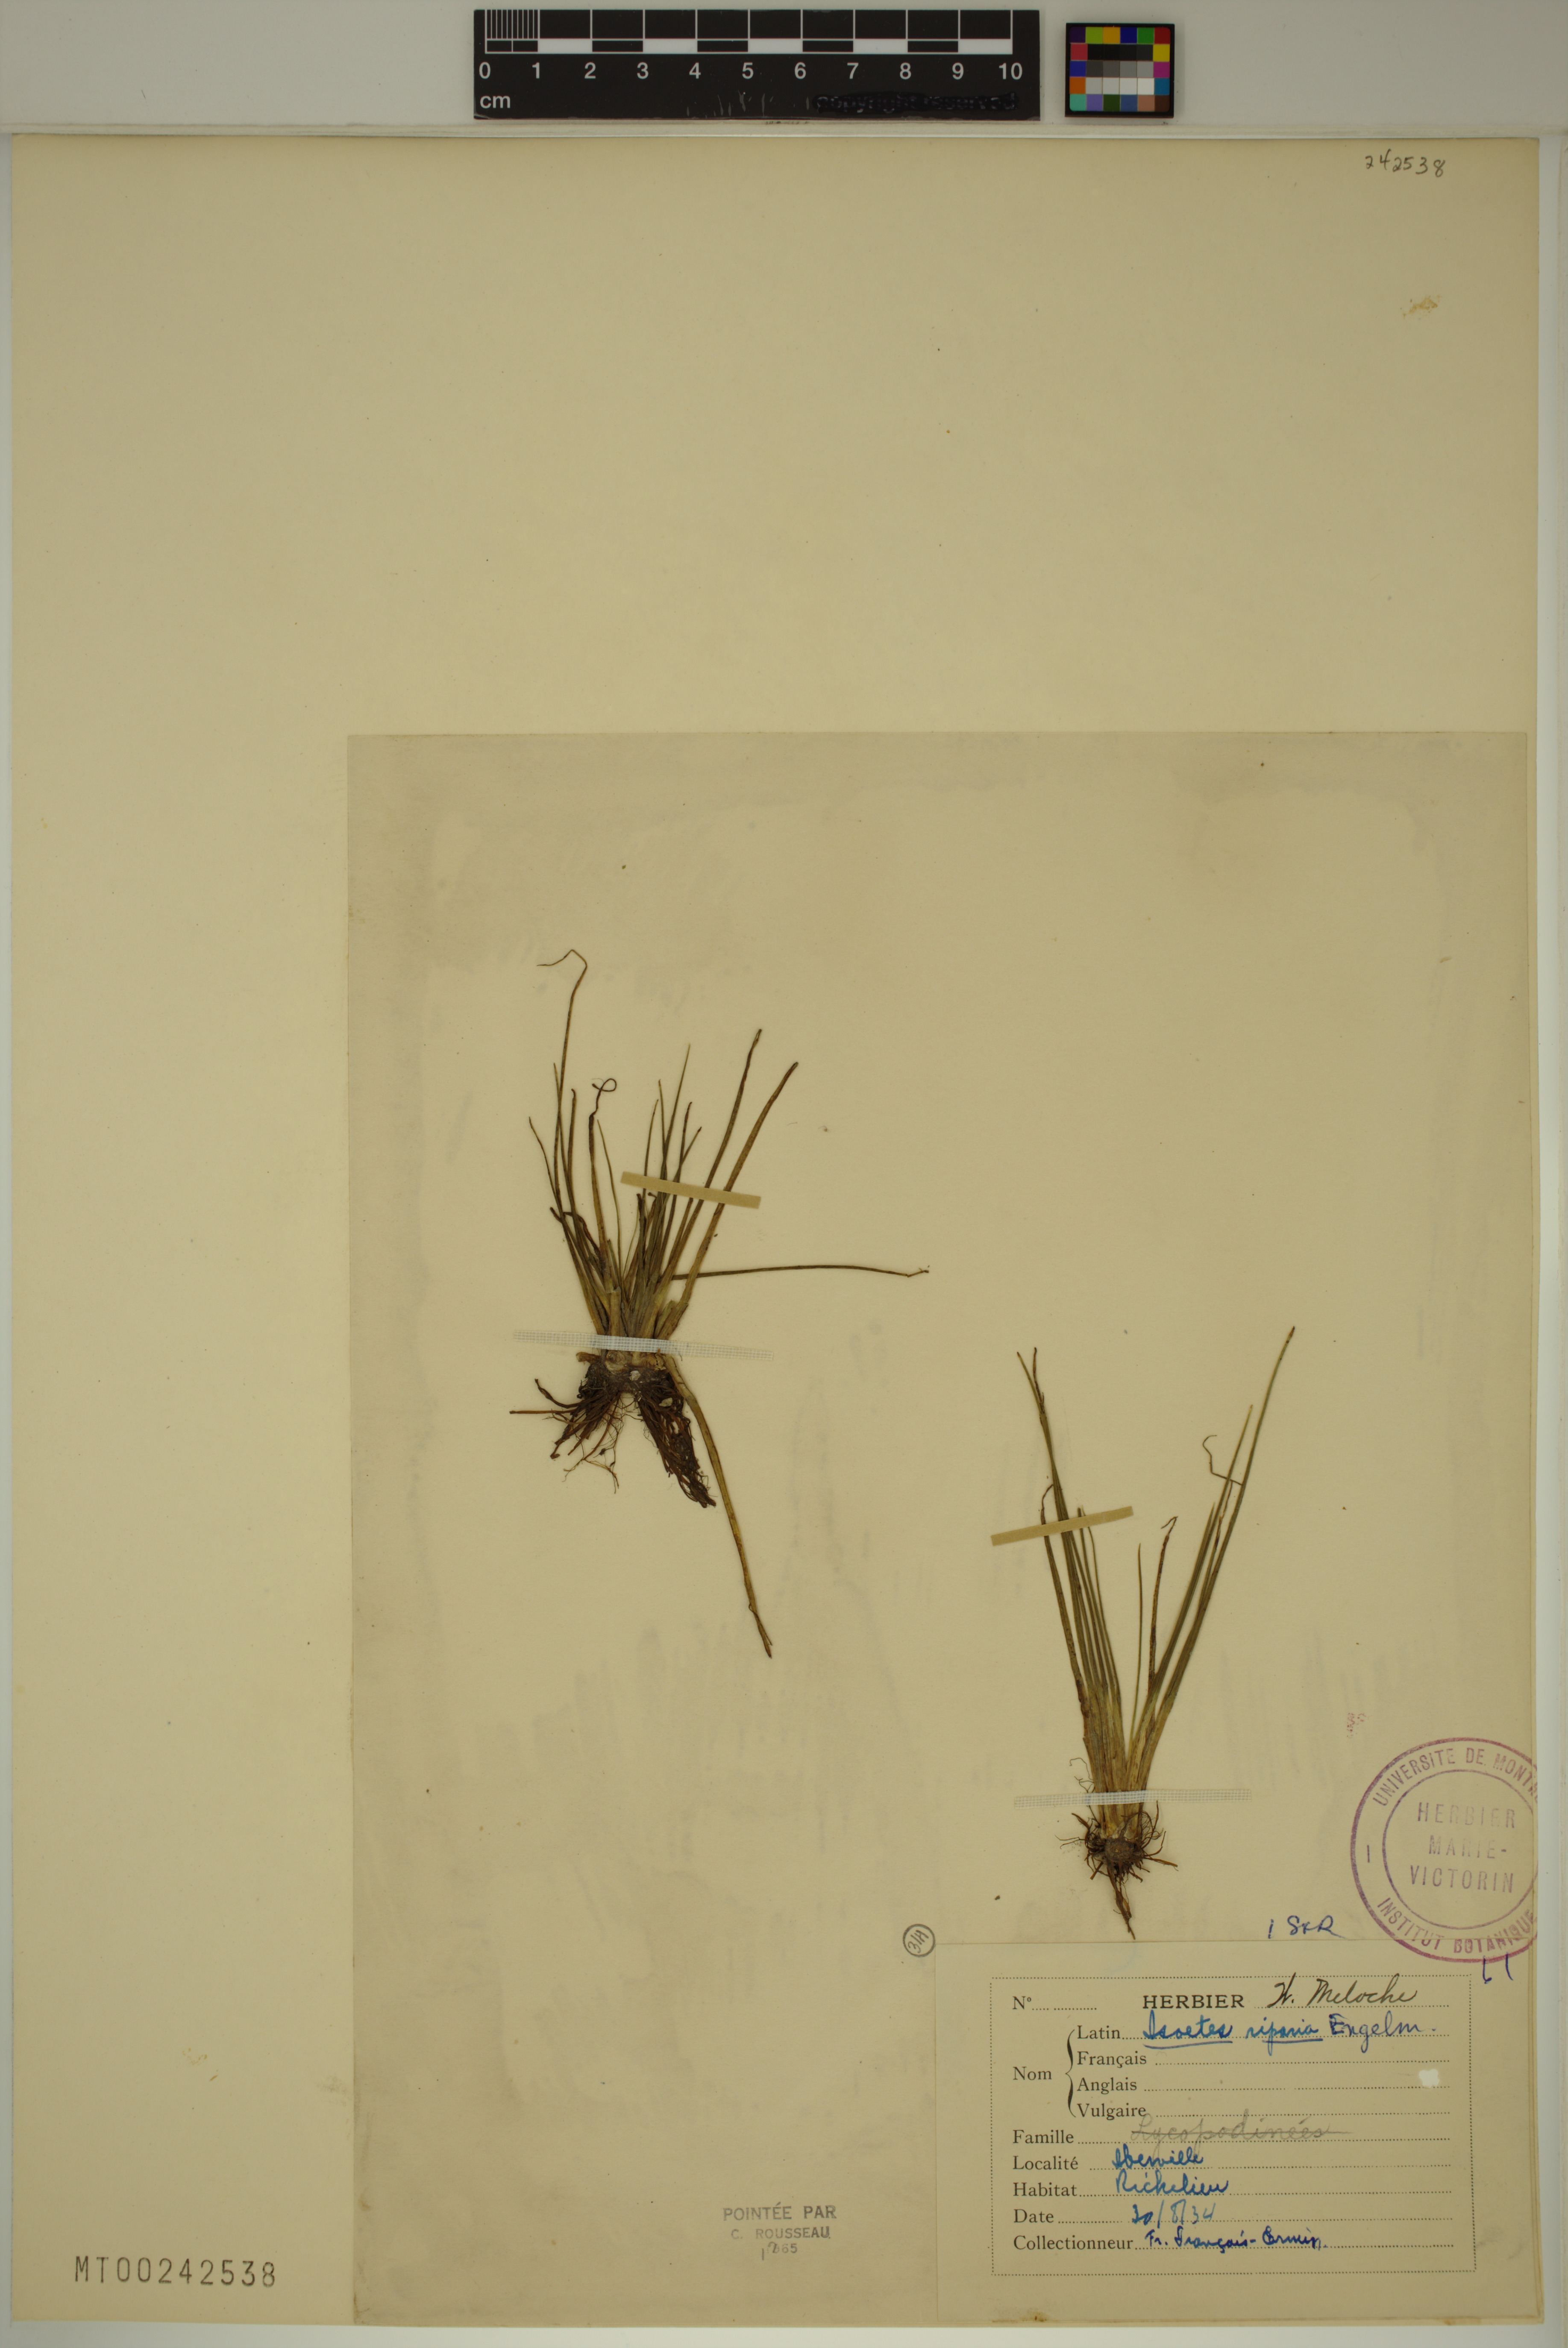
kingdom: Plantae
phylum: Tracheophyta
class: Lycopodiopsida
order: Isoetales
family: Isoetaceae
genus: Isoetes
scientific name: Isoetes septentrionalis
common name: Northern quillwort
